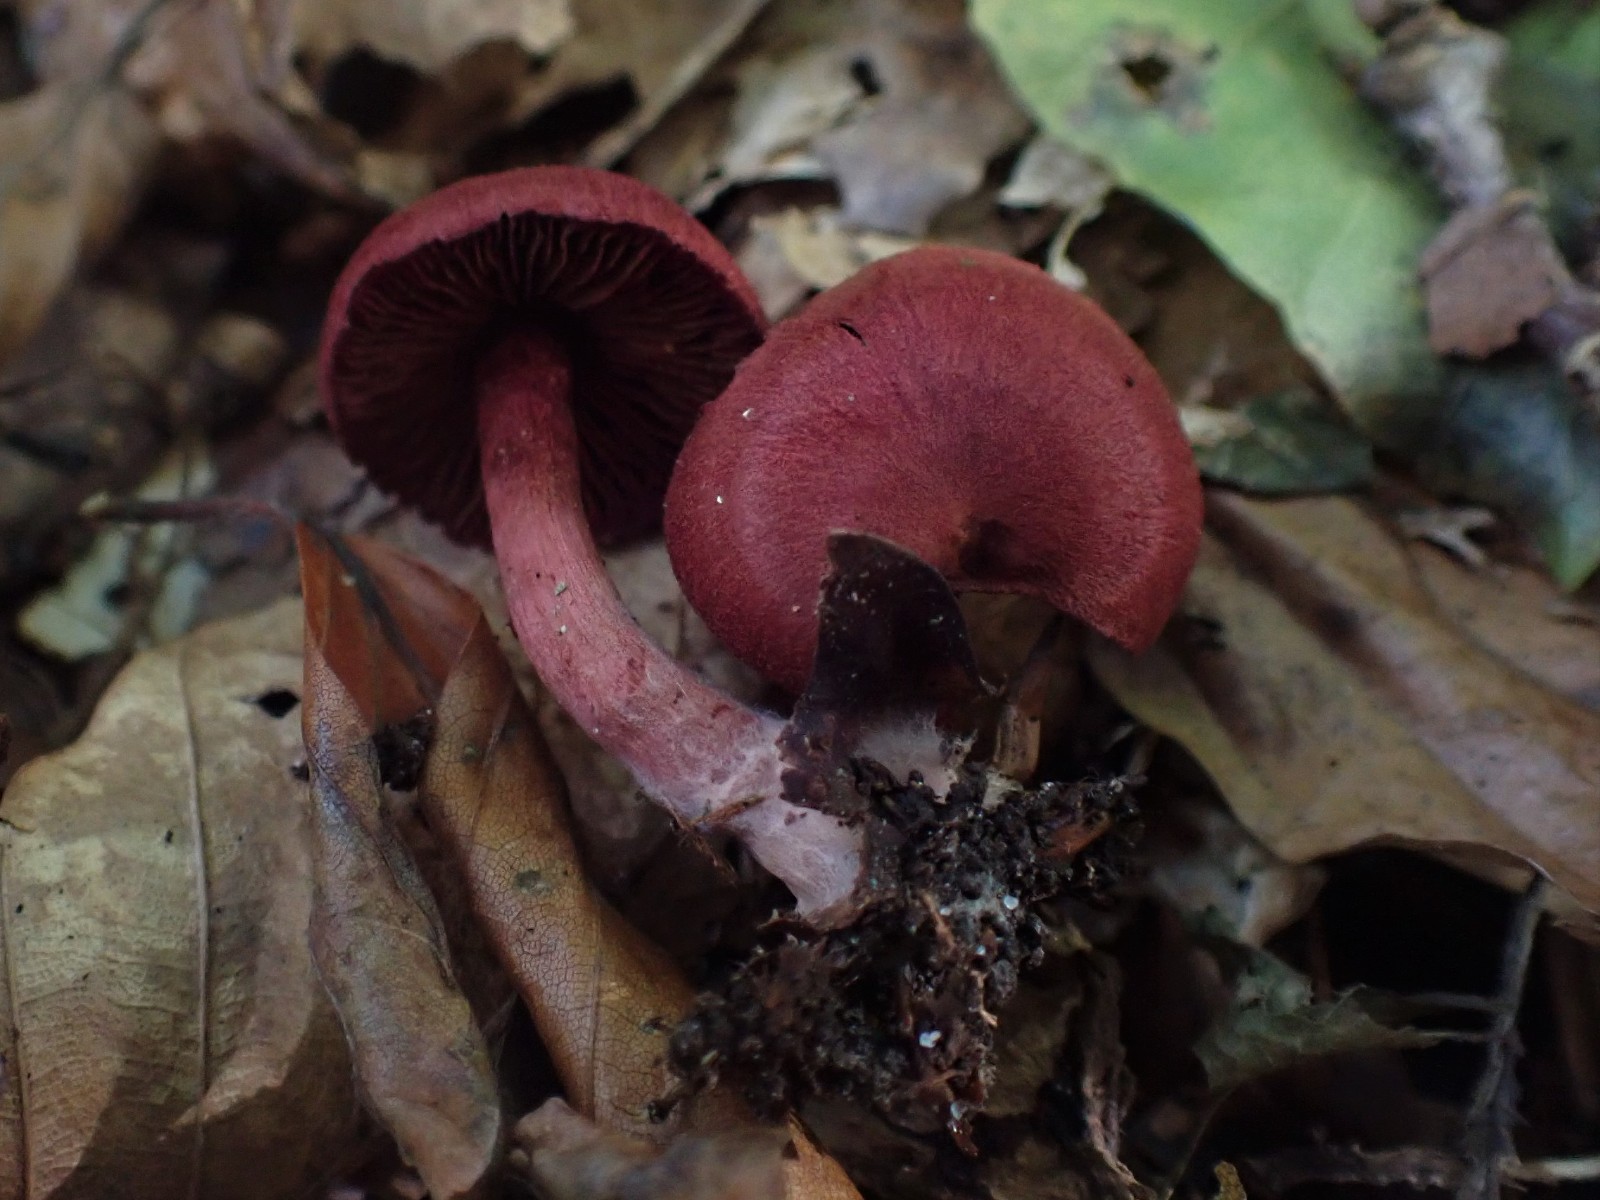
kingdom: Fungi
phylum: Basidiomycota
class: Agaricomycetes
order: Agaricales
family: Cortinariaceae
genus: Cortinarius
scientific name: Cortinarius sanguineus
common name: Bloodred webcap
